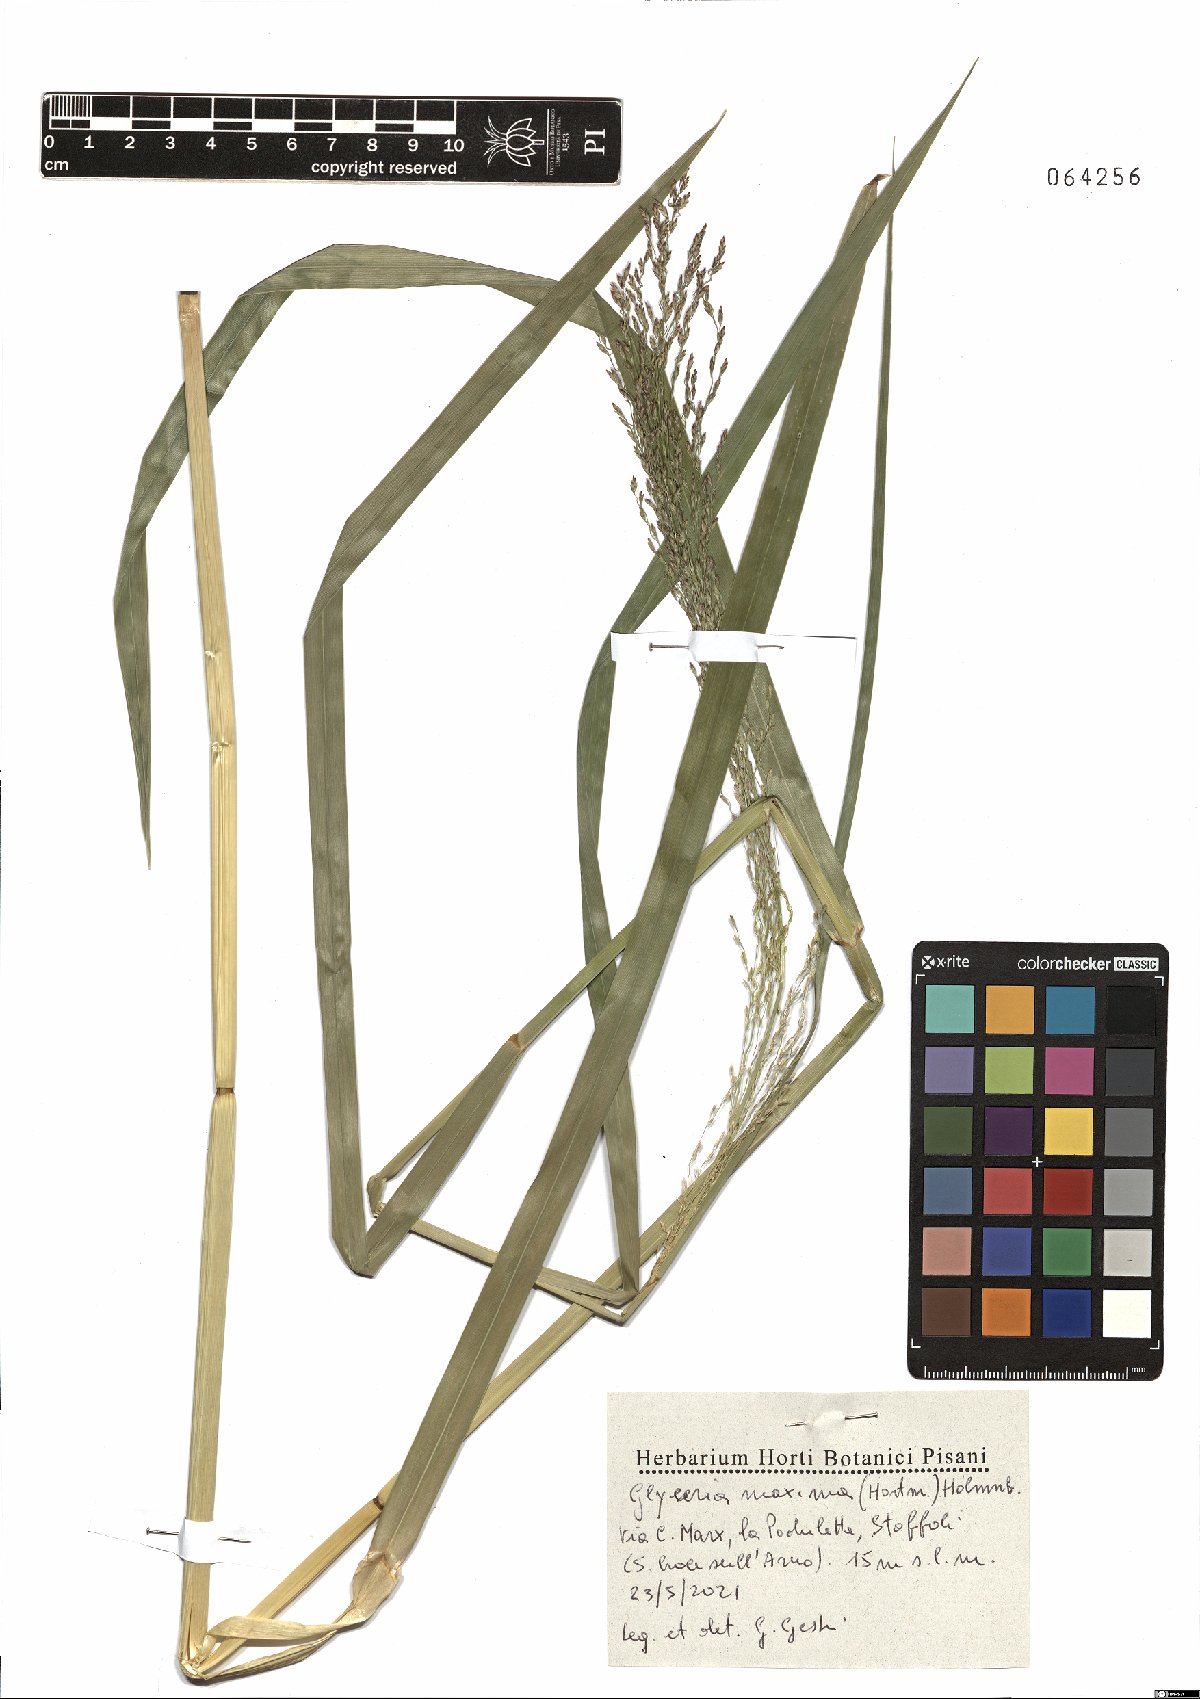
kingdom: Plantae
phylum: Tracheophyta
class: Liliopsida
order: Poales
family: Poaceae
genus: Glyceria
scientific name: Glyceria maxima
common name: Reed mannagrass
